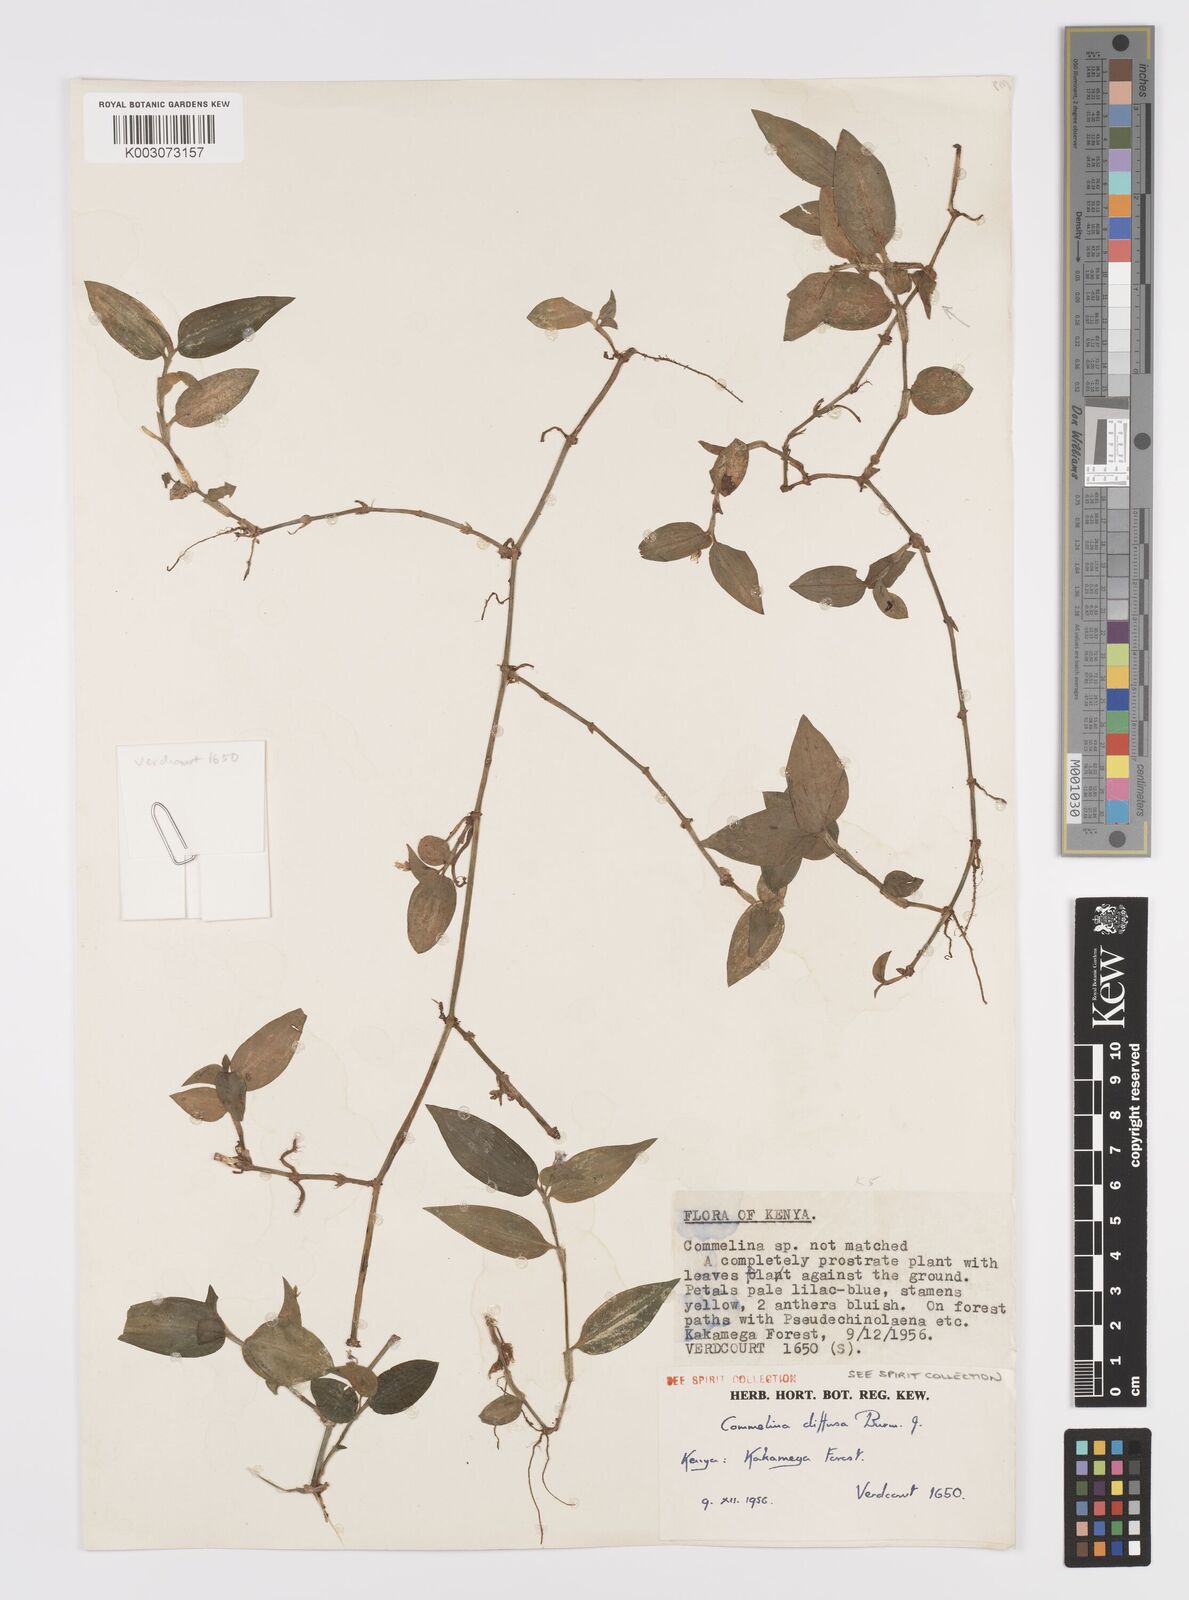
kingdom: Plantae
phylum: Tracheophyta
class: Liliopsida
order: Commelinales
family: Commelinaceae
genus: Commelina
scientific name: Commelina diffusa
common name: Climbing dayflower
